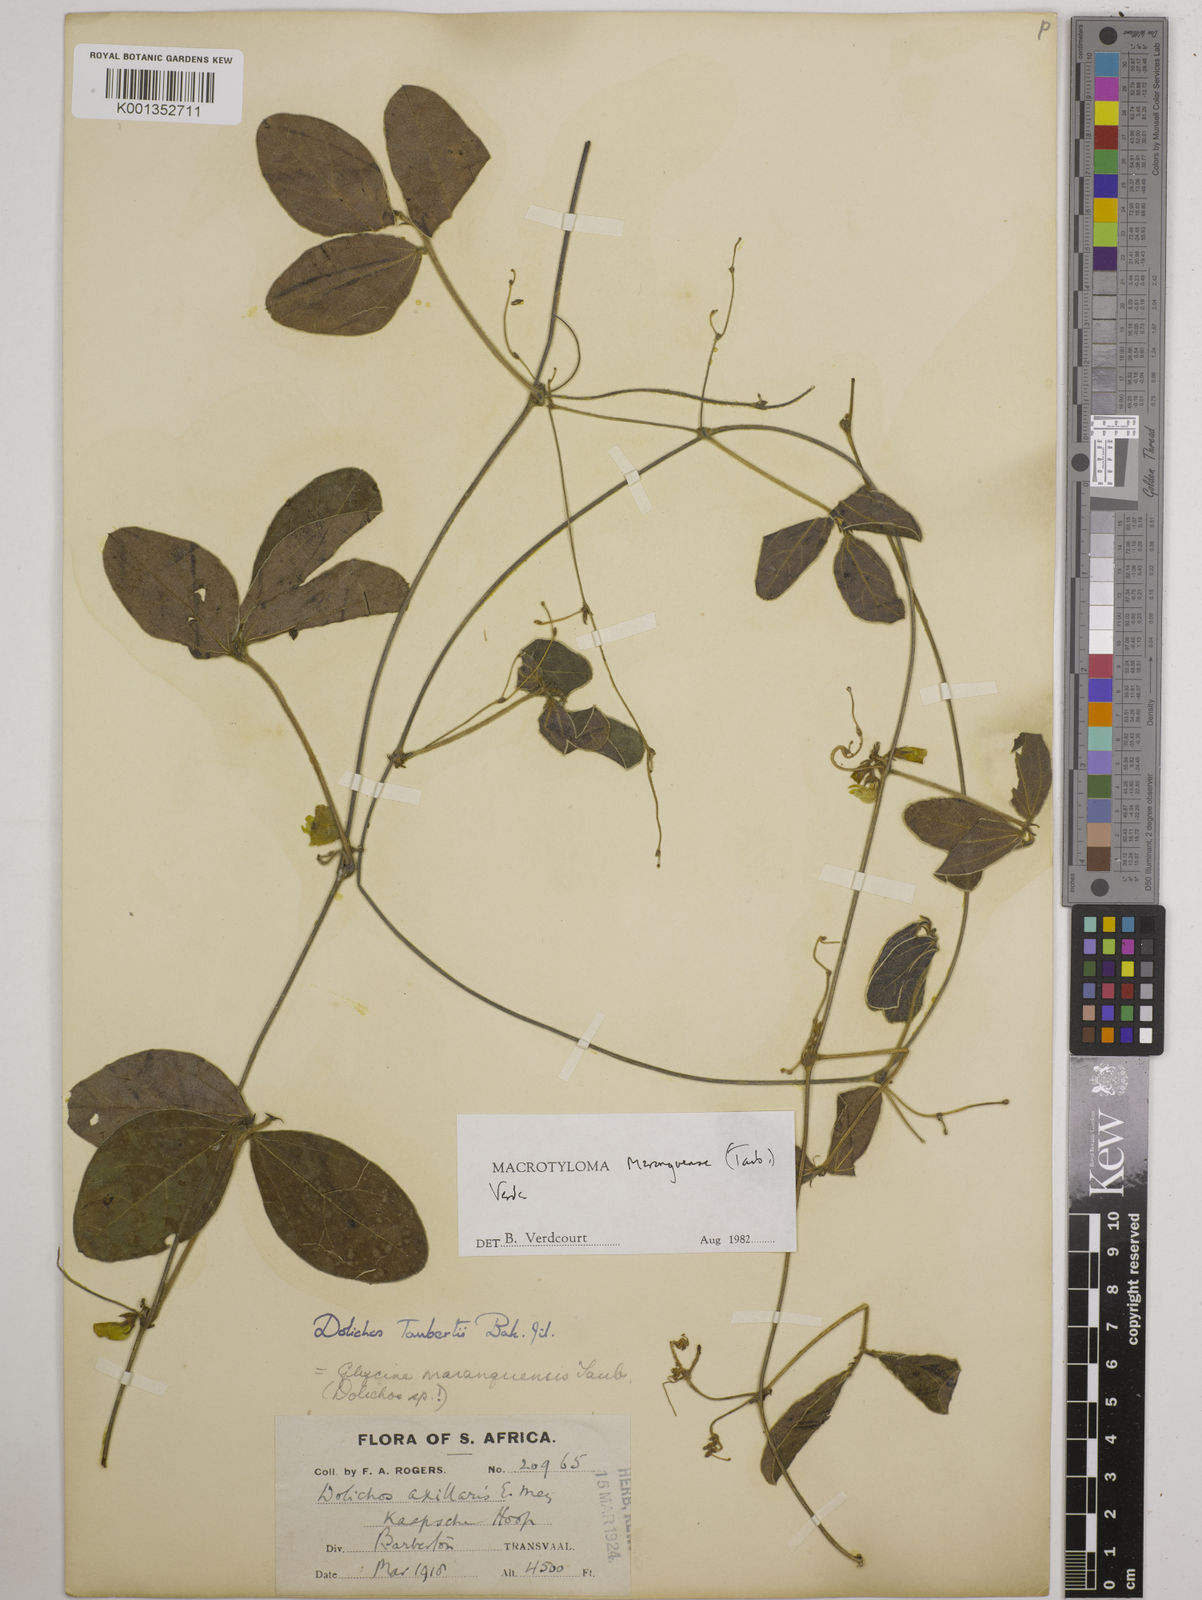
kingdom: Plantae
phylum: Tracheophyta
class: Magnoliopsida
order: Fabales
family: Fabaceae
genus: Macrotyloma
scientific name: Macrotyloma maranguense
